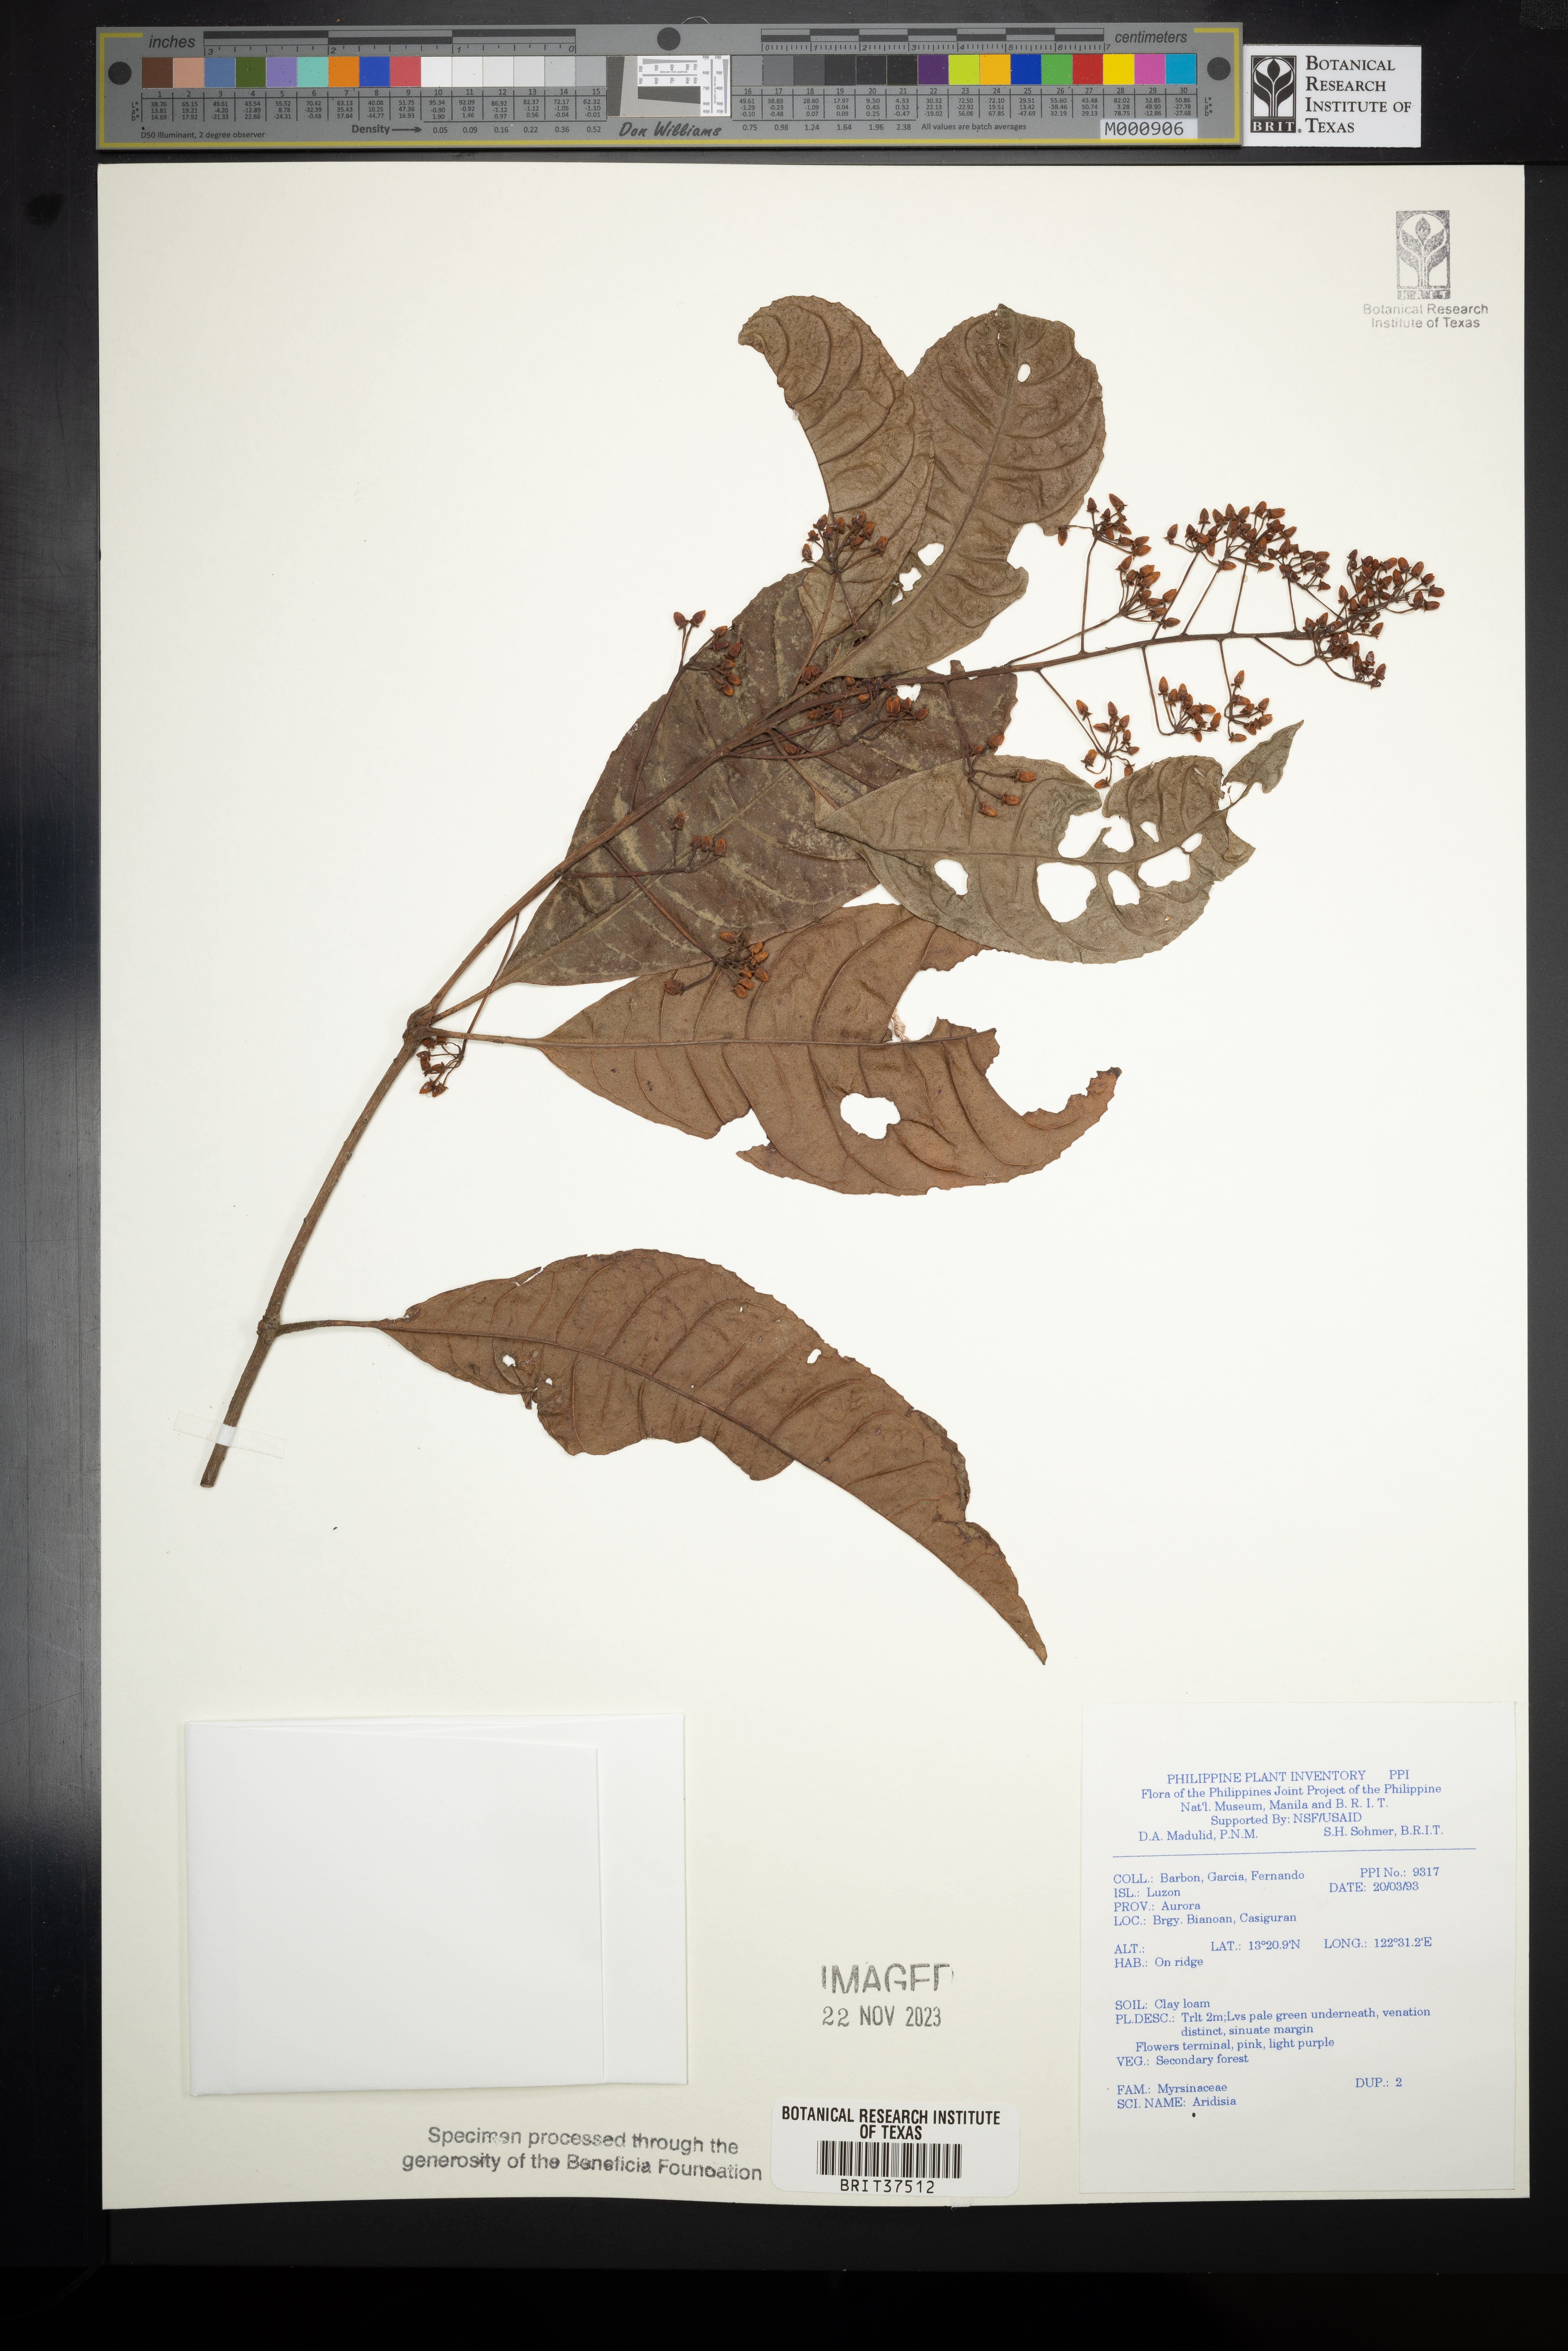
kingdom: Plantae
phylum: Tracheophyta
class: Magnoliopsida
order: Ericales
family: Primulaceae
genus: Ardisia
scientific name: Ardisia
